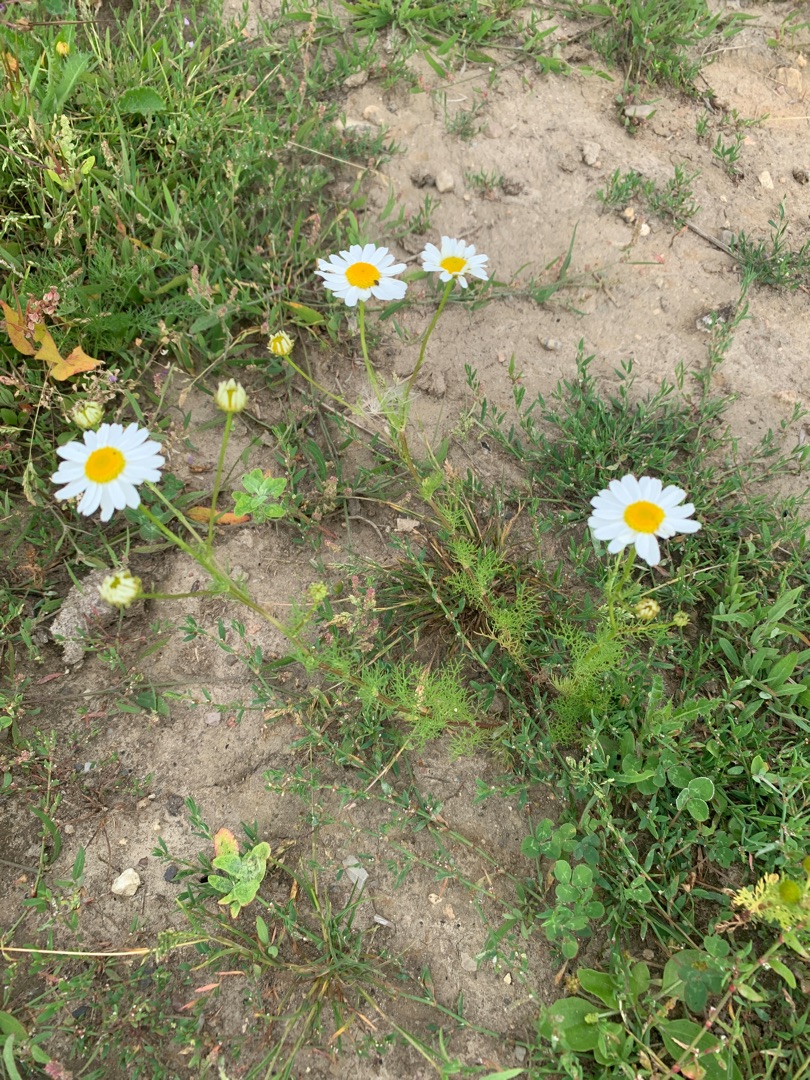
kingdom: Plantae
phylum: Tracheophyta
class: Magnoliopsida
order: Asterales
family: Asteraceae
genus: Tripleurospermum
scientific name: Tripleurospermum inodorum
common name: Lugtløs kamille
